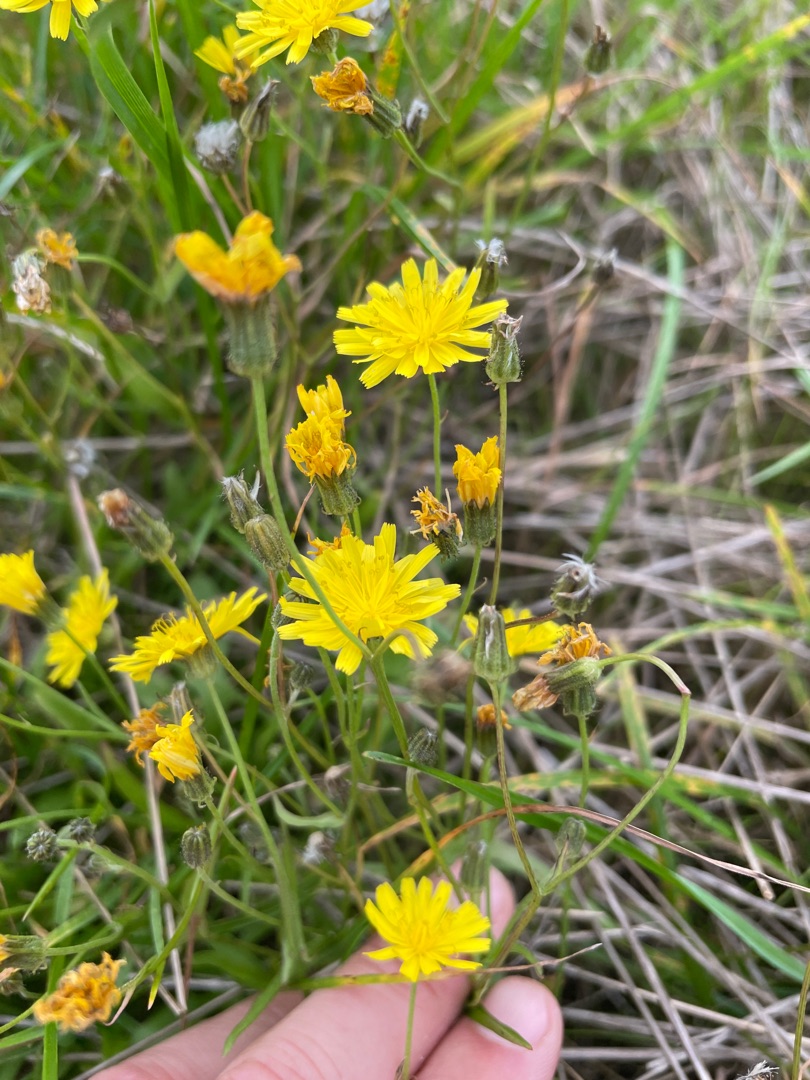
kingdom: Plantae
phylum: Tracheophyta
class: Magnoliopsida
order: Asterales
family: Asteraceae
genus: Crepis
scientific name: Crepis capillaris
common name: Grøn høgeskæg
